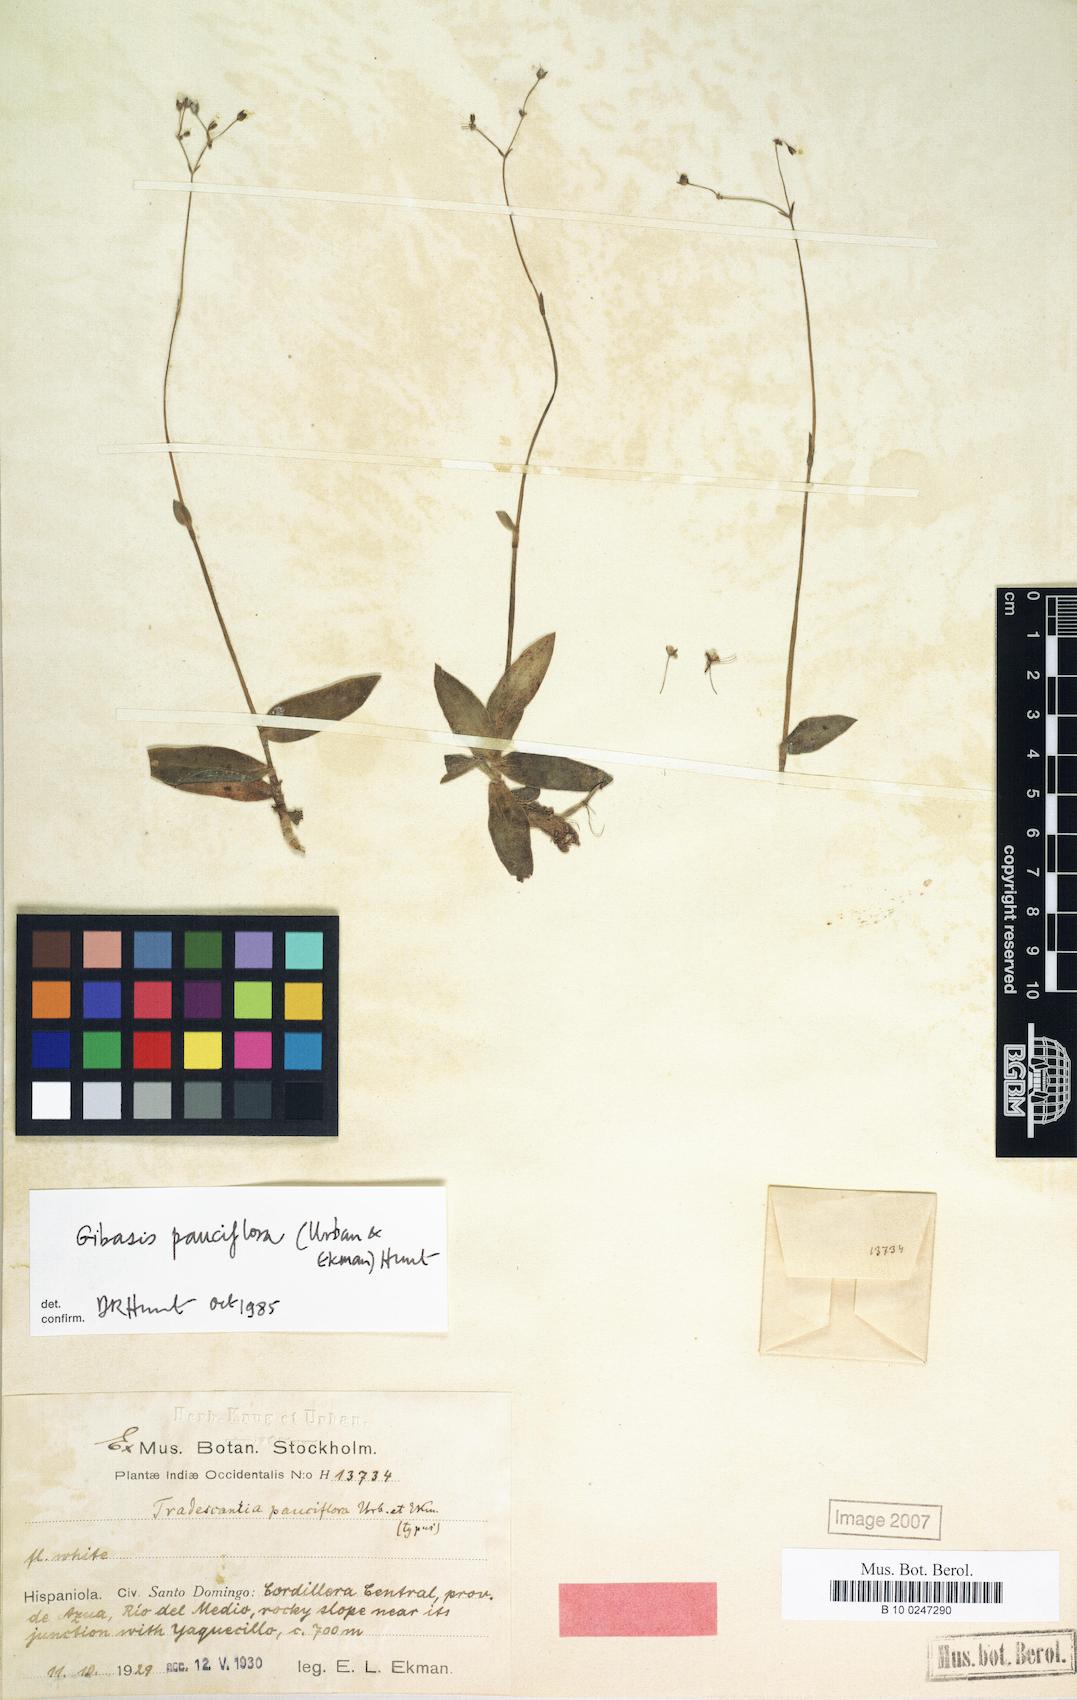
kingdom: Plantae
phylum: Tracheophyta
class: Liliopsida
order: Commelinales
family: Commelinaceae
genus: Gibasis
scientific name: Gibasis pauciflora
